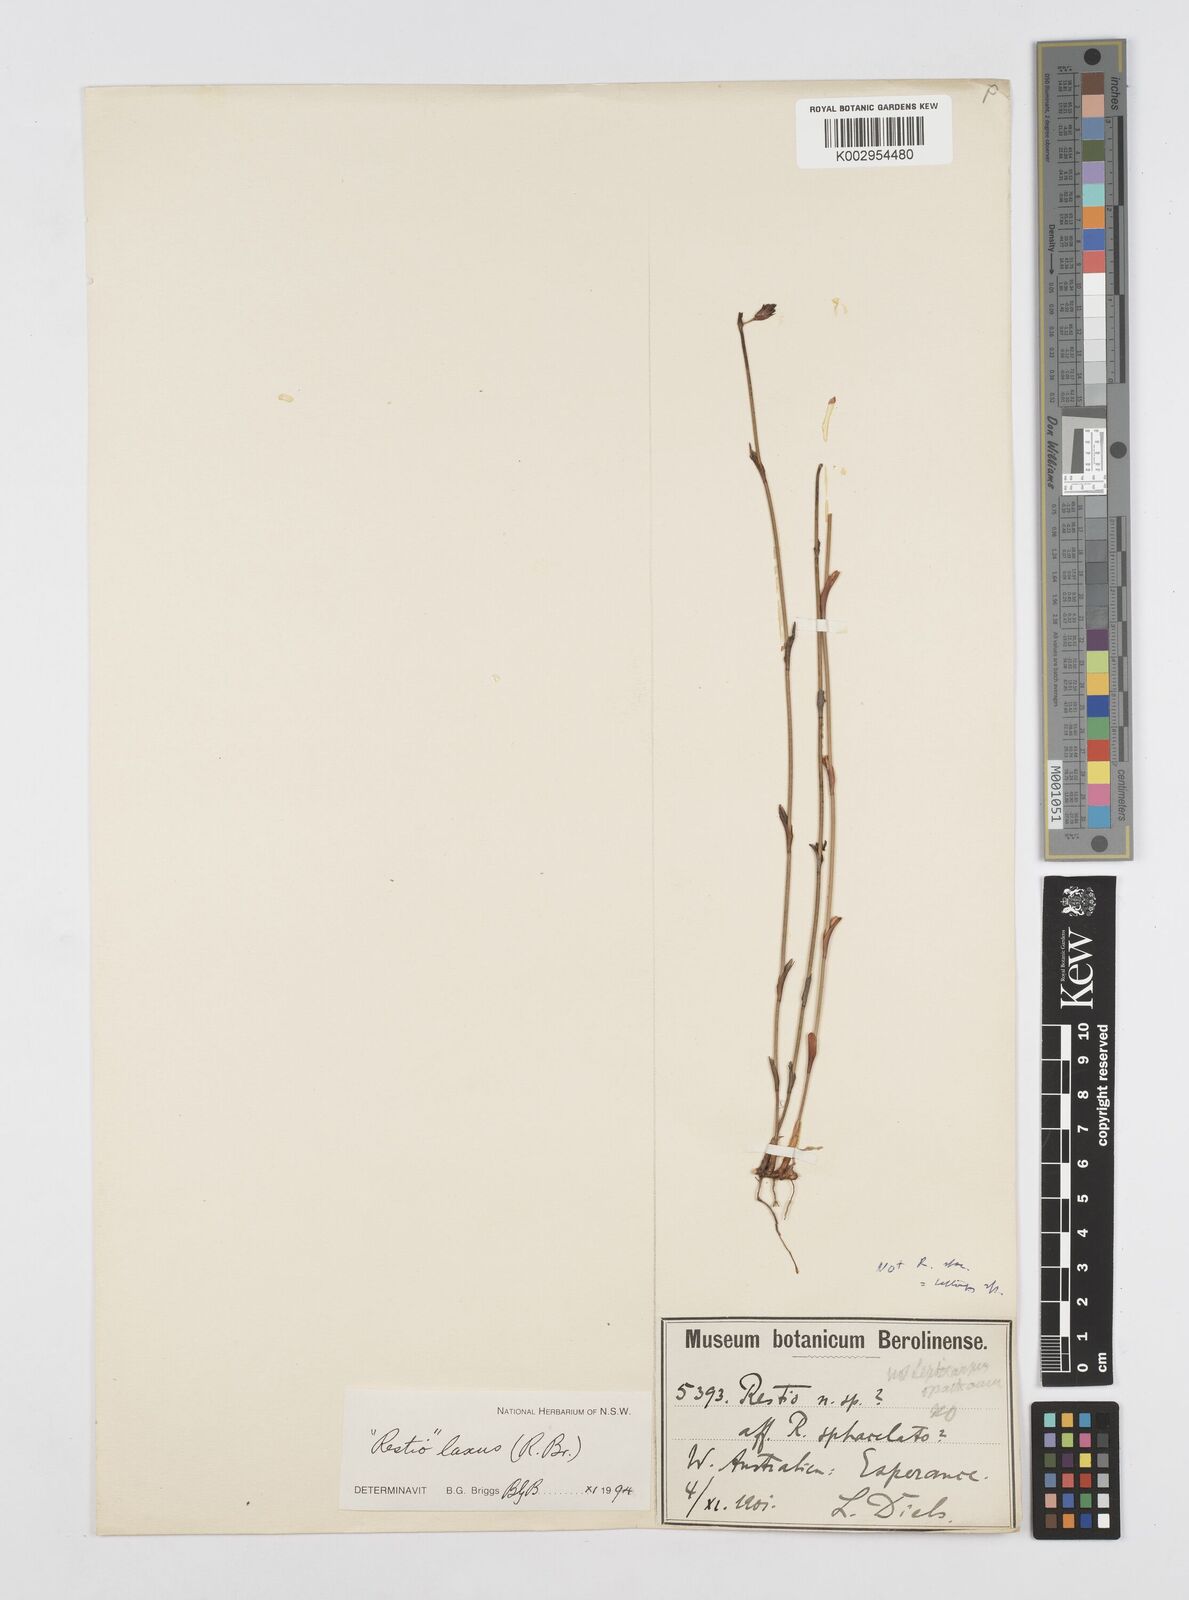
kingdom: Plantae
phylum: Tracheophyta
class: Liliopsida
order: Poales
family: Restionaceae
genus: Chordifex
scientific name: Chordifex laxus
